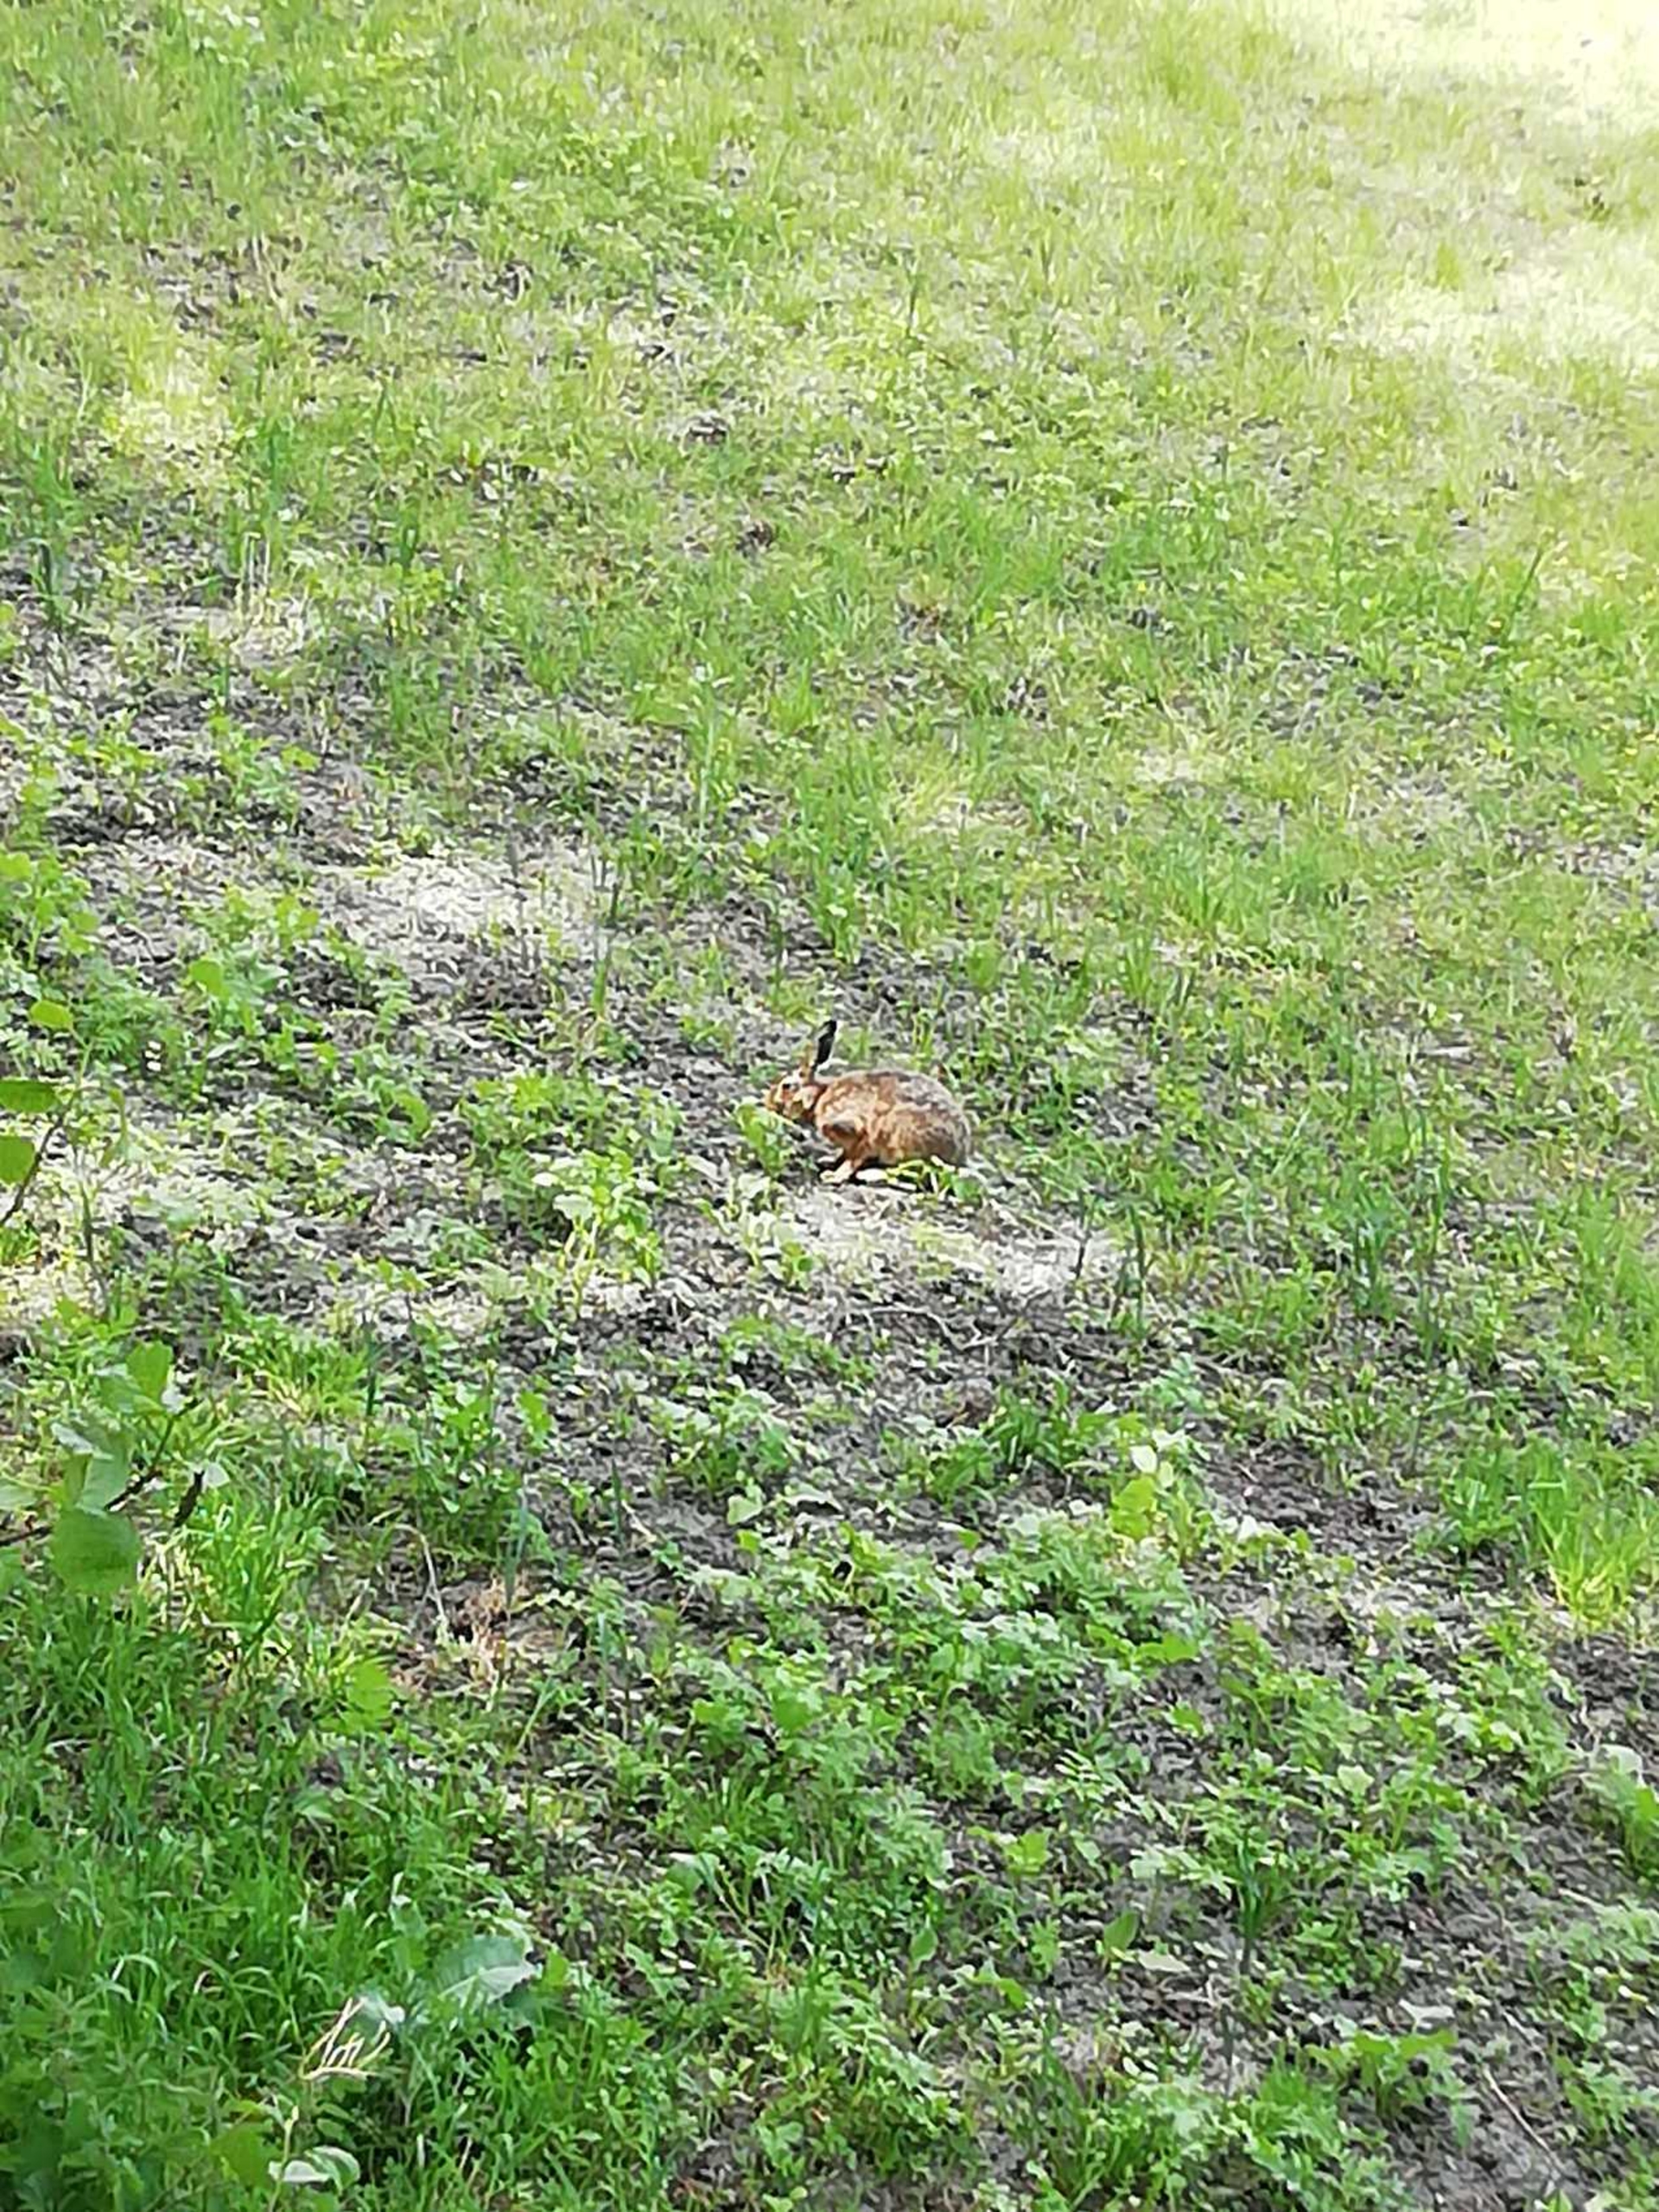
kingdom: Animalia
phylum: Chordata
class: Mammalia
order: Lagomorpha
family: Leporidae
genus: Lepus
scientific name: Lepus europaeus
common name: Hare
